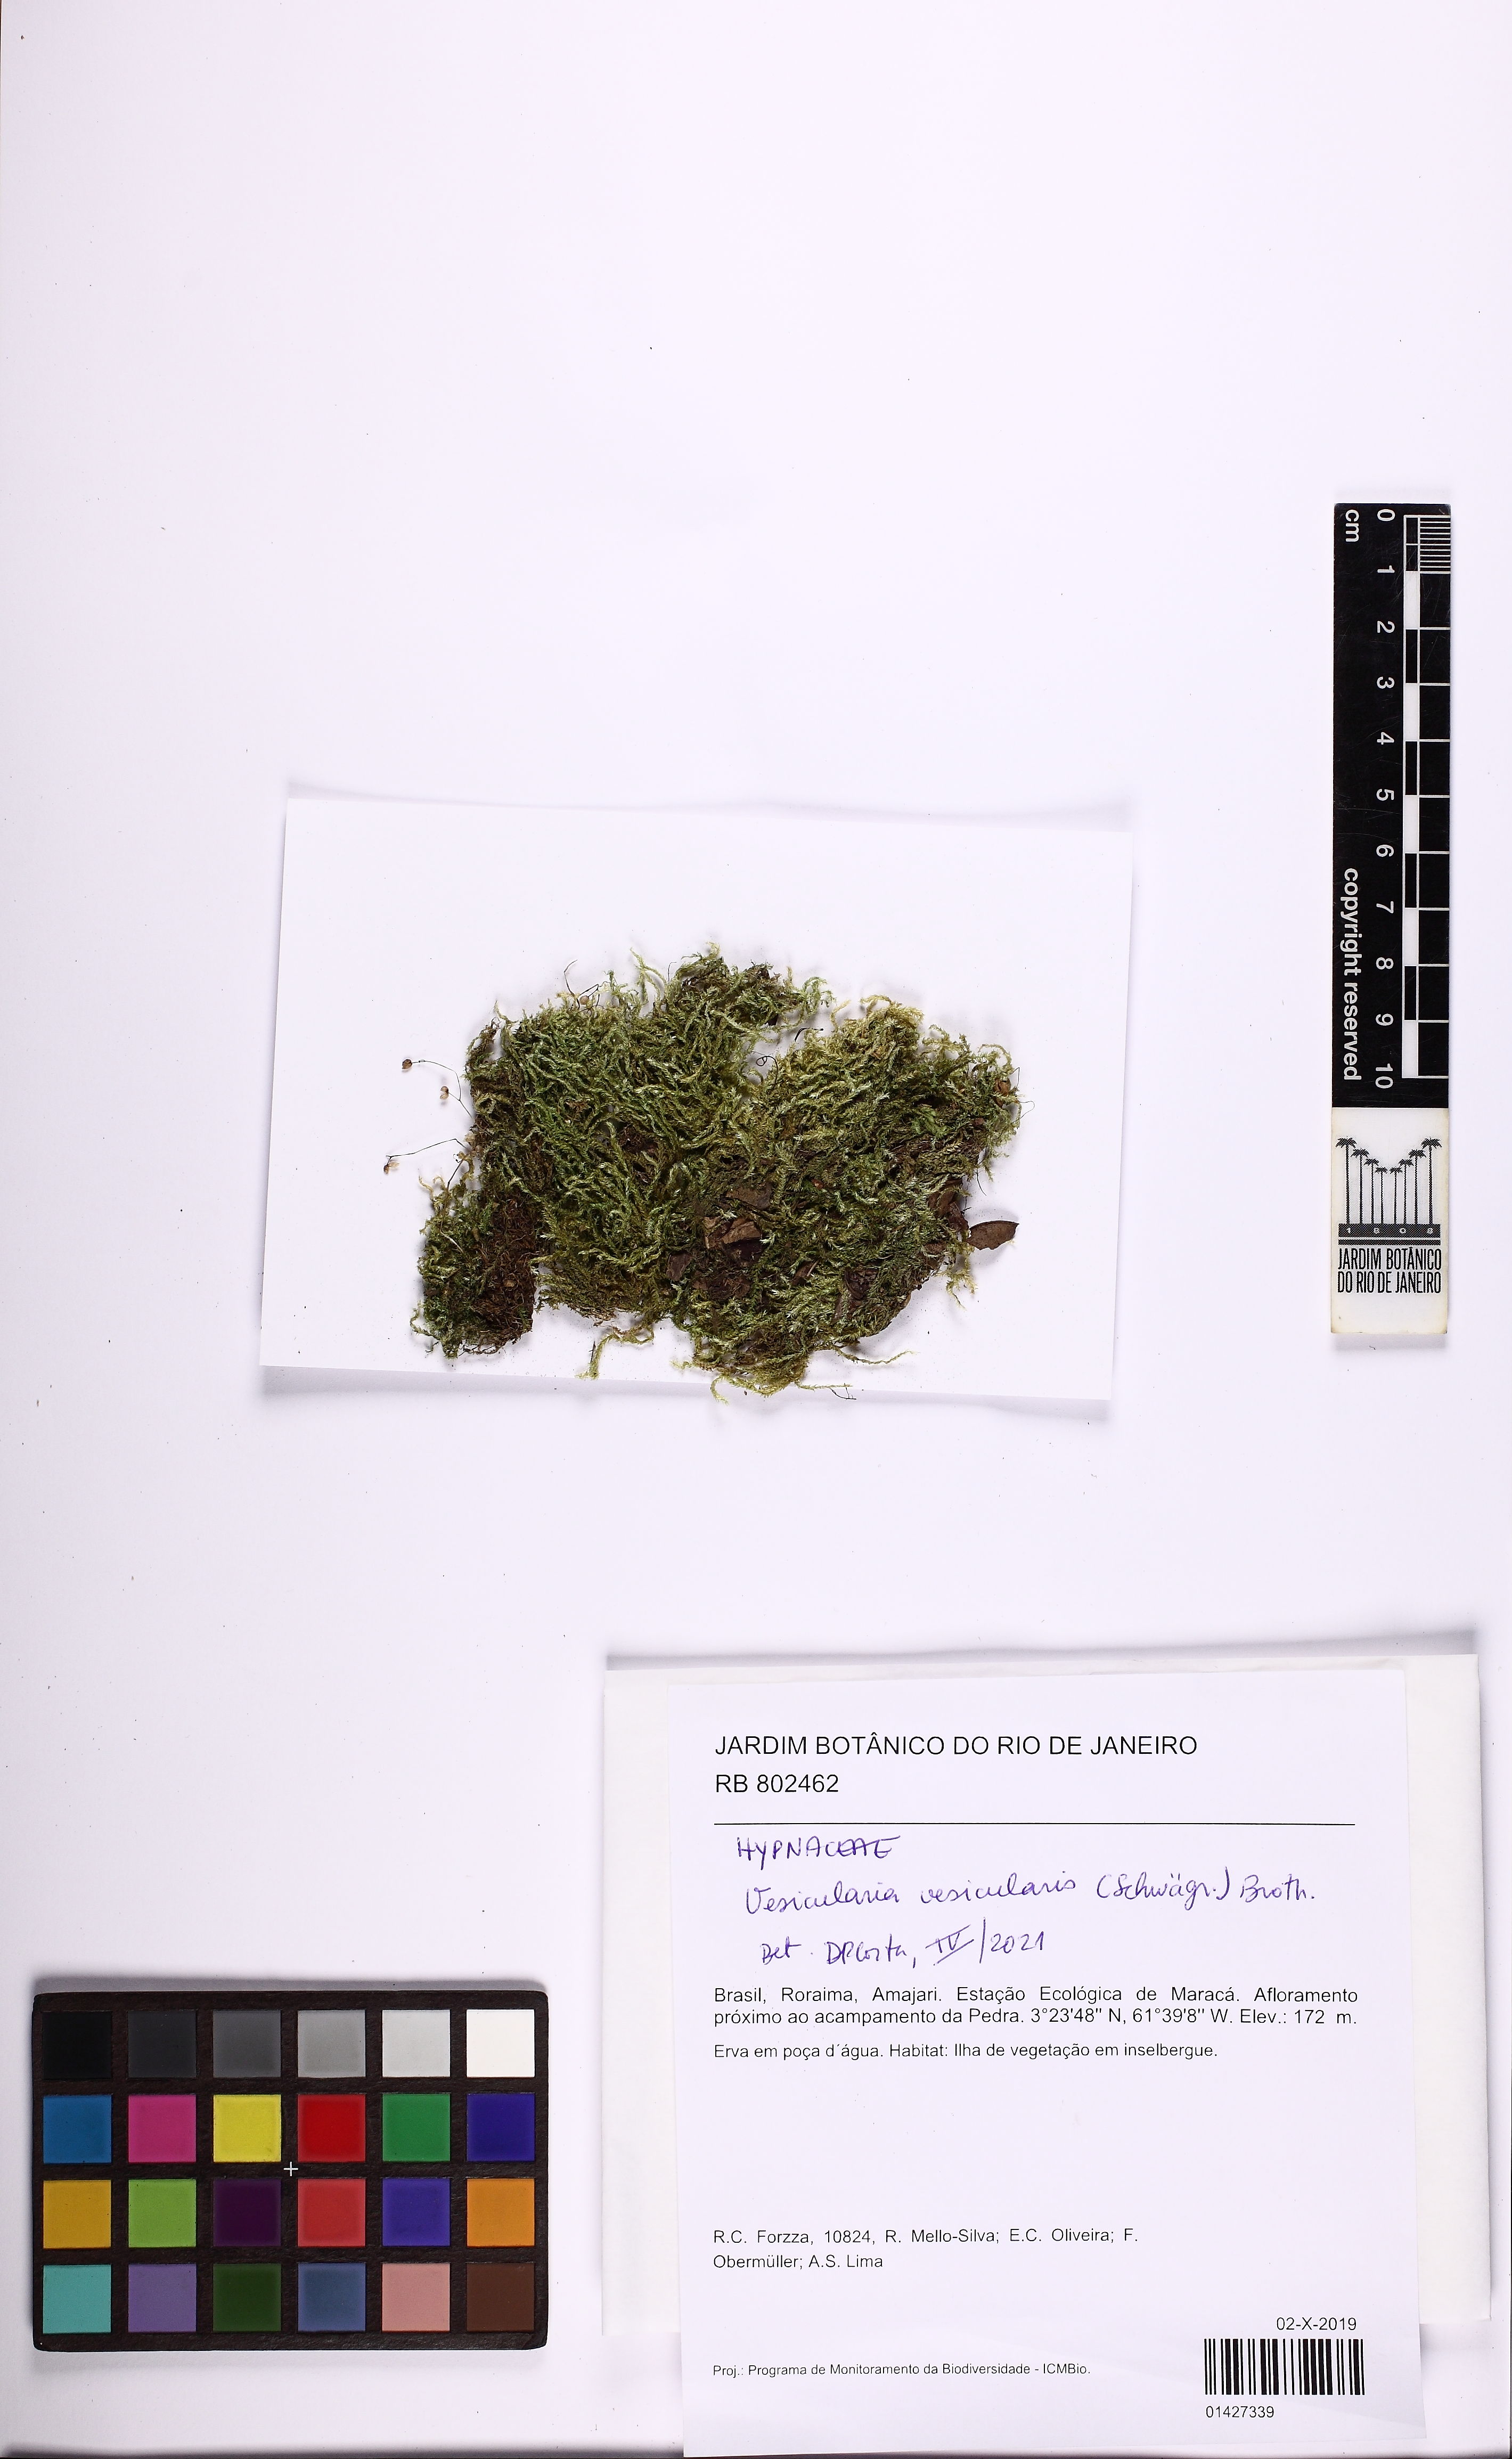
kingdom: Plantae
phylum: Bryophyta
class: Bryopsida
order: Hypnales
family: Hypnaceae
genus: Vesicularia
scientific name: Vesicularia vesicularis
